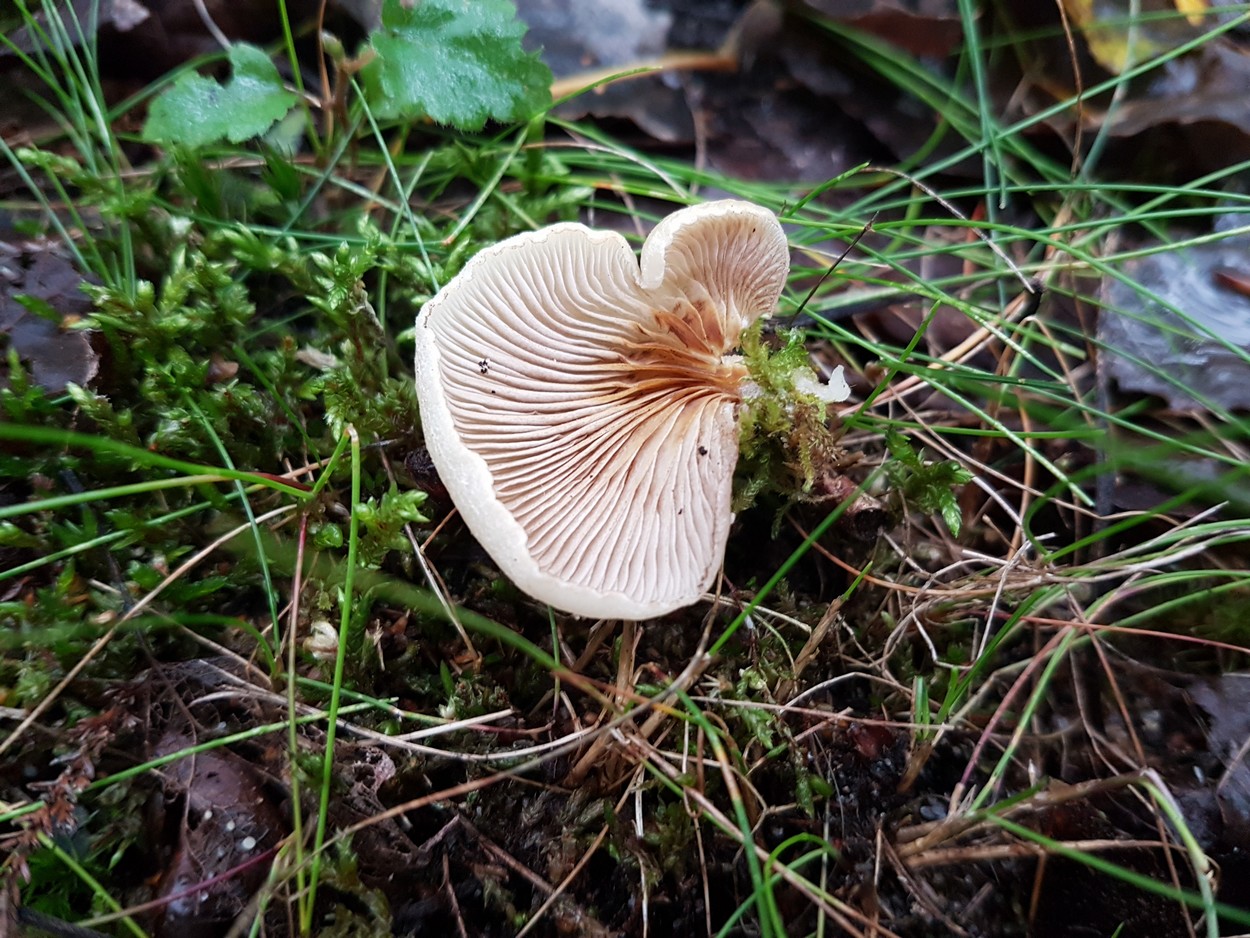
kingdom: Fungi
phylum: Basidiomycota
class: Agaricomycetes
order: Agaricales
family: Crepidotaceae
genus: Crepidotus
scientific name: Crepidotus mollis
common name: blød muslingesvamp
